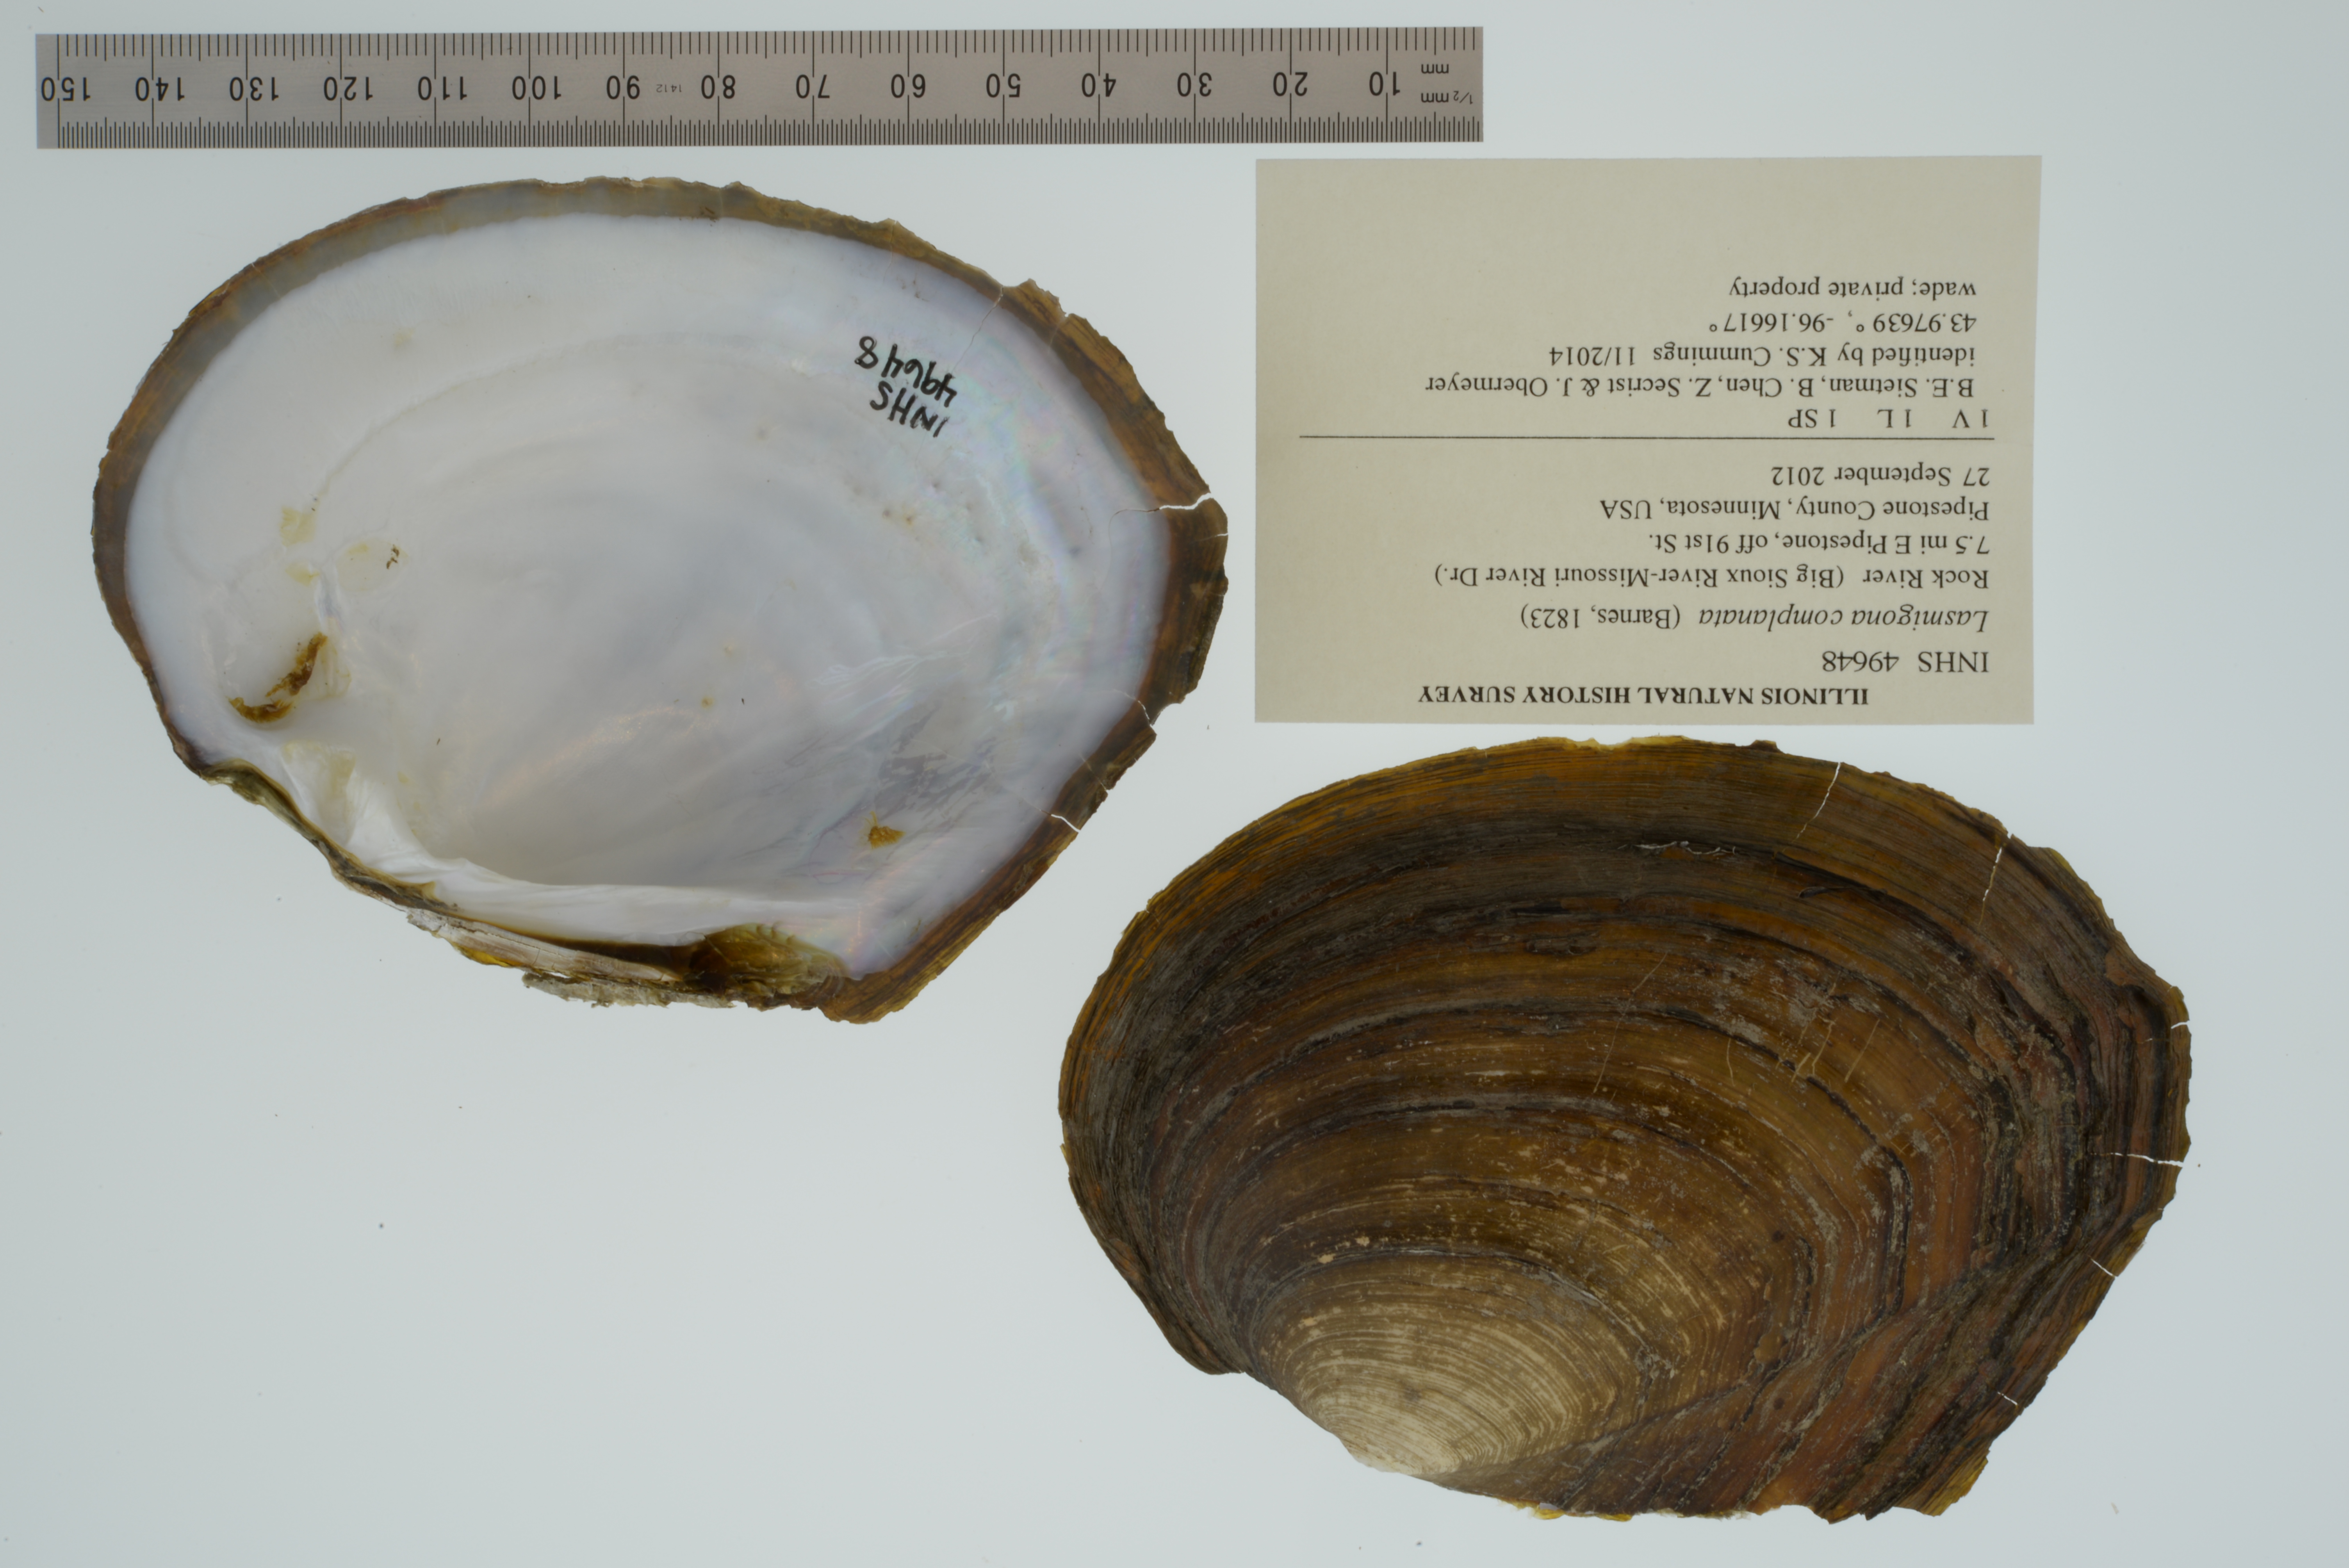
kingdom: Animalia
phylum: Mollusca
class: Bivalvia
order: Unionida
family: Unionidae
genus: Lasmigona
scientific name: Lasmigona complanata
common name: White heelsplitter
